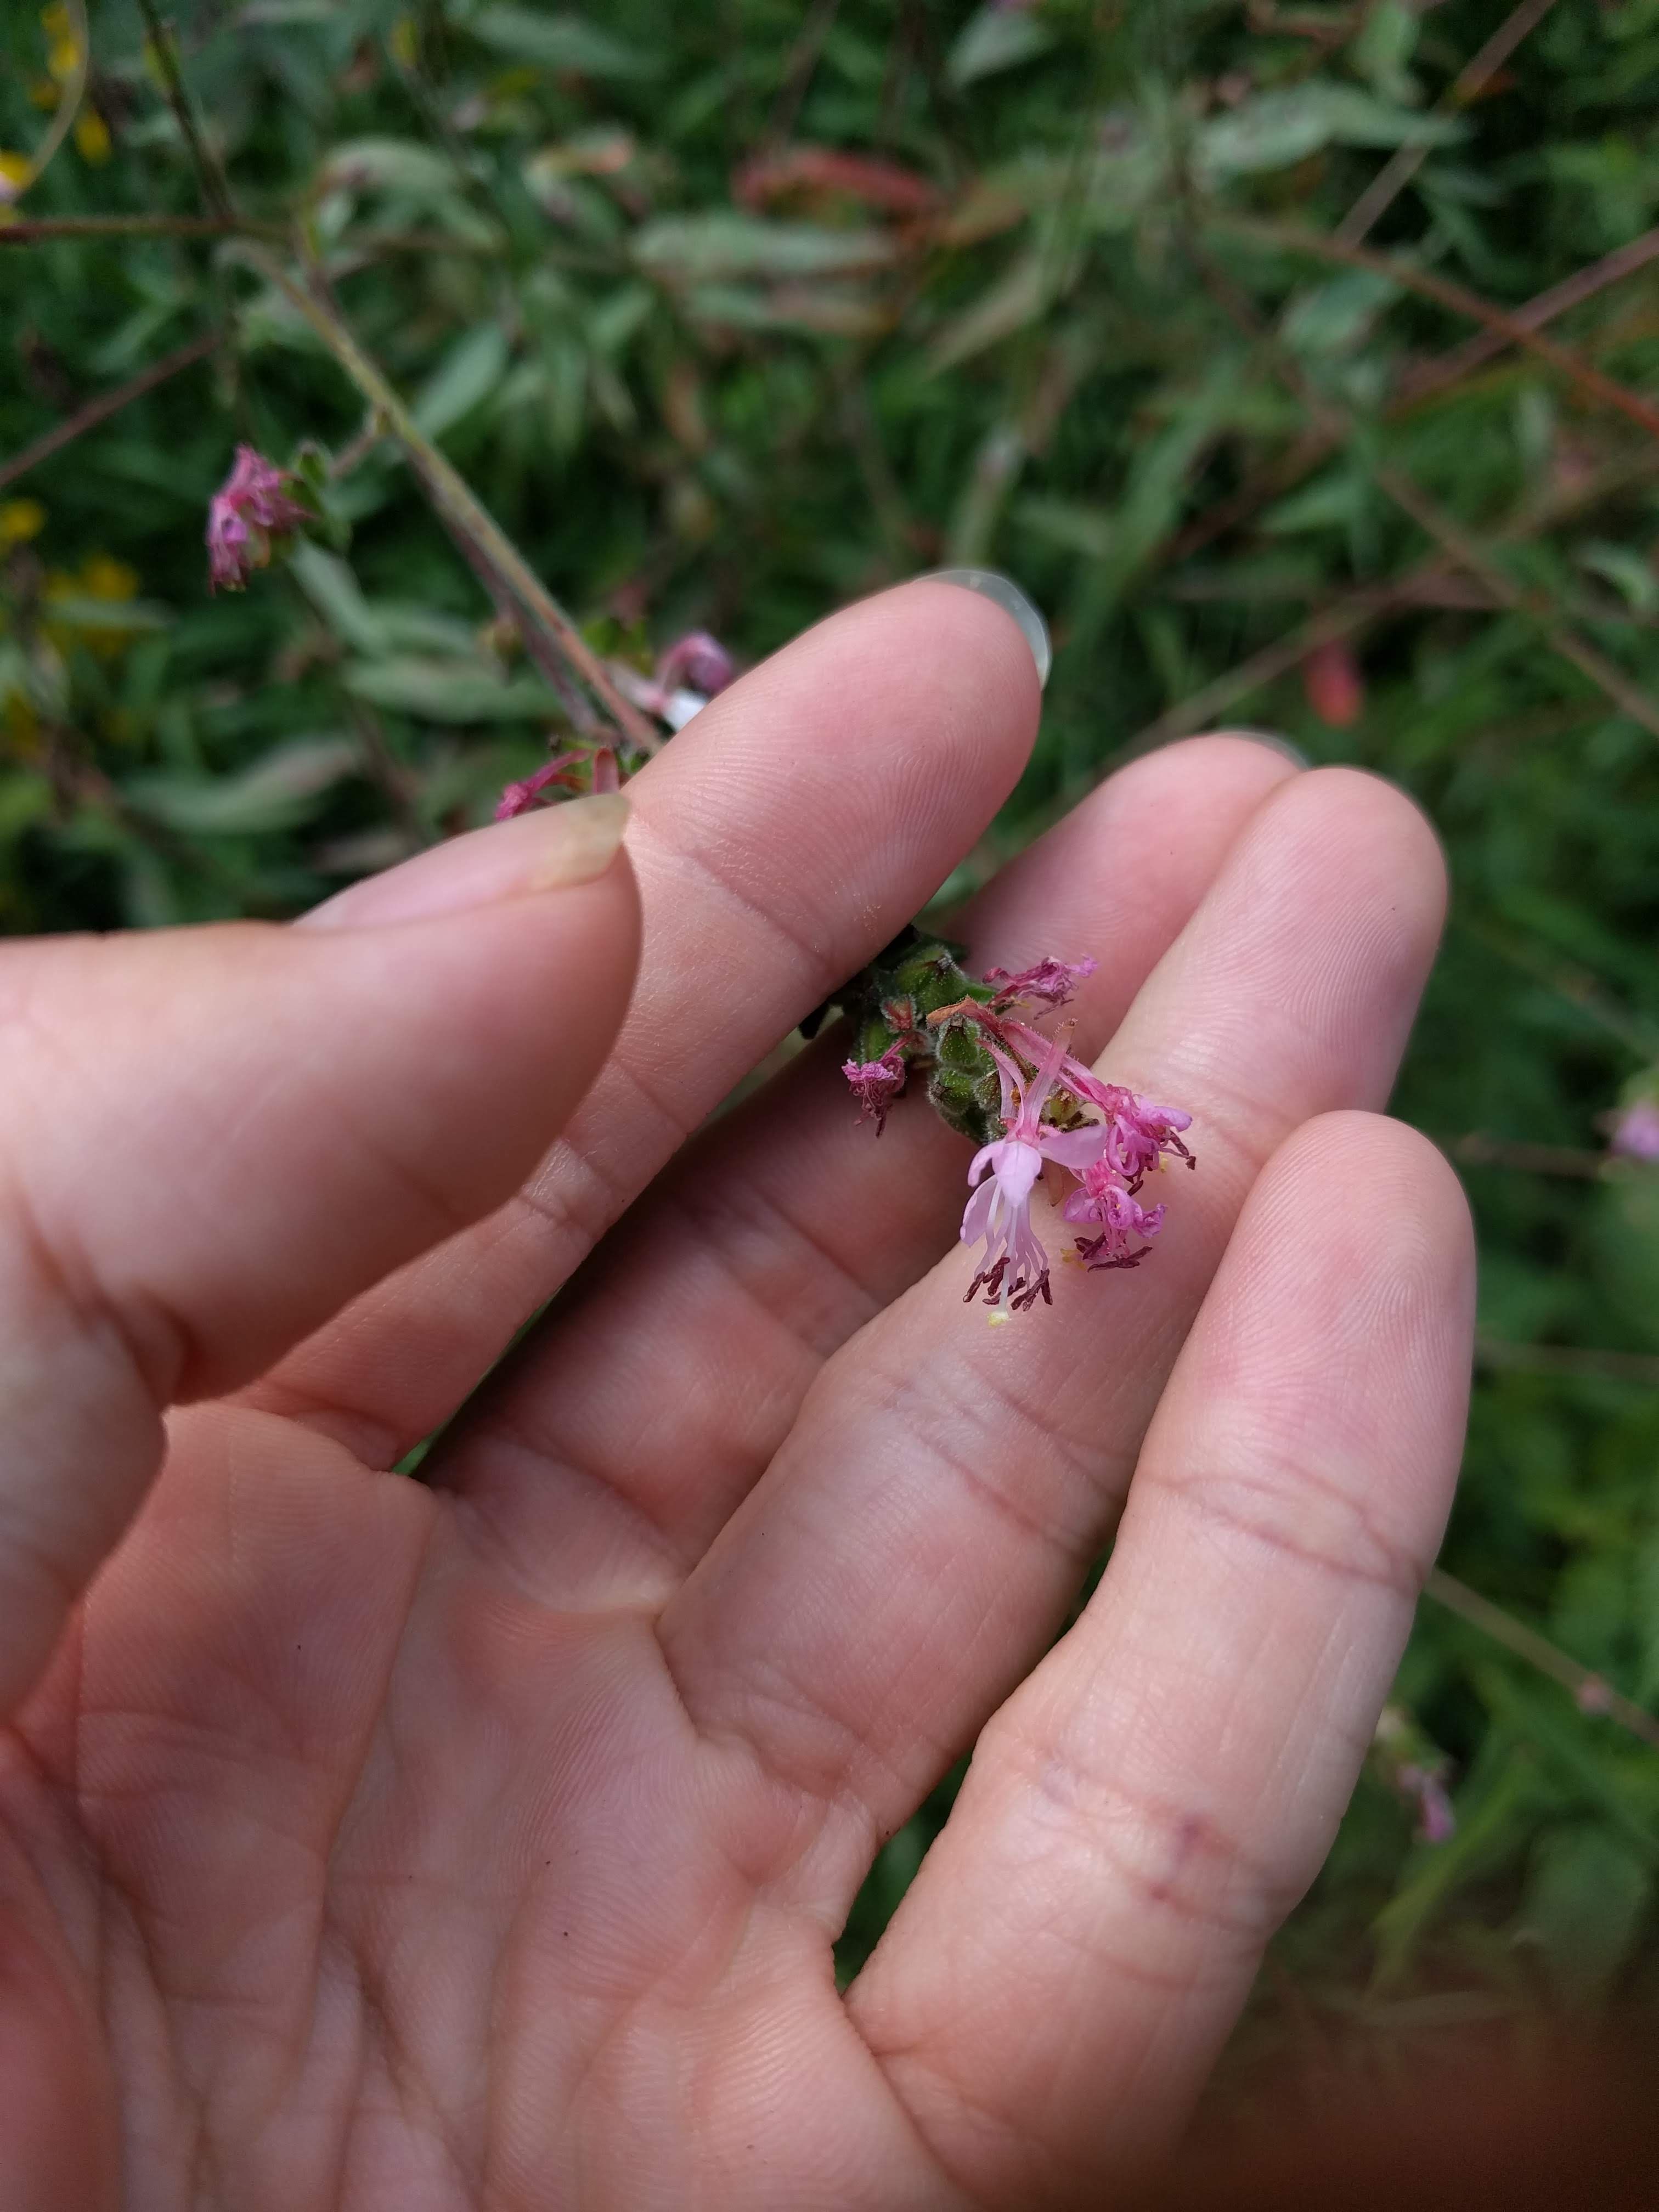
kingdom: Plantae
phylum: Tracheophyta
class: Magnoliopsida
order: Myrtales
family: Onagraceae
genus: Oenothera
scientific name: Oenothera gaura
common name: Biennial beeblossom
